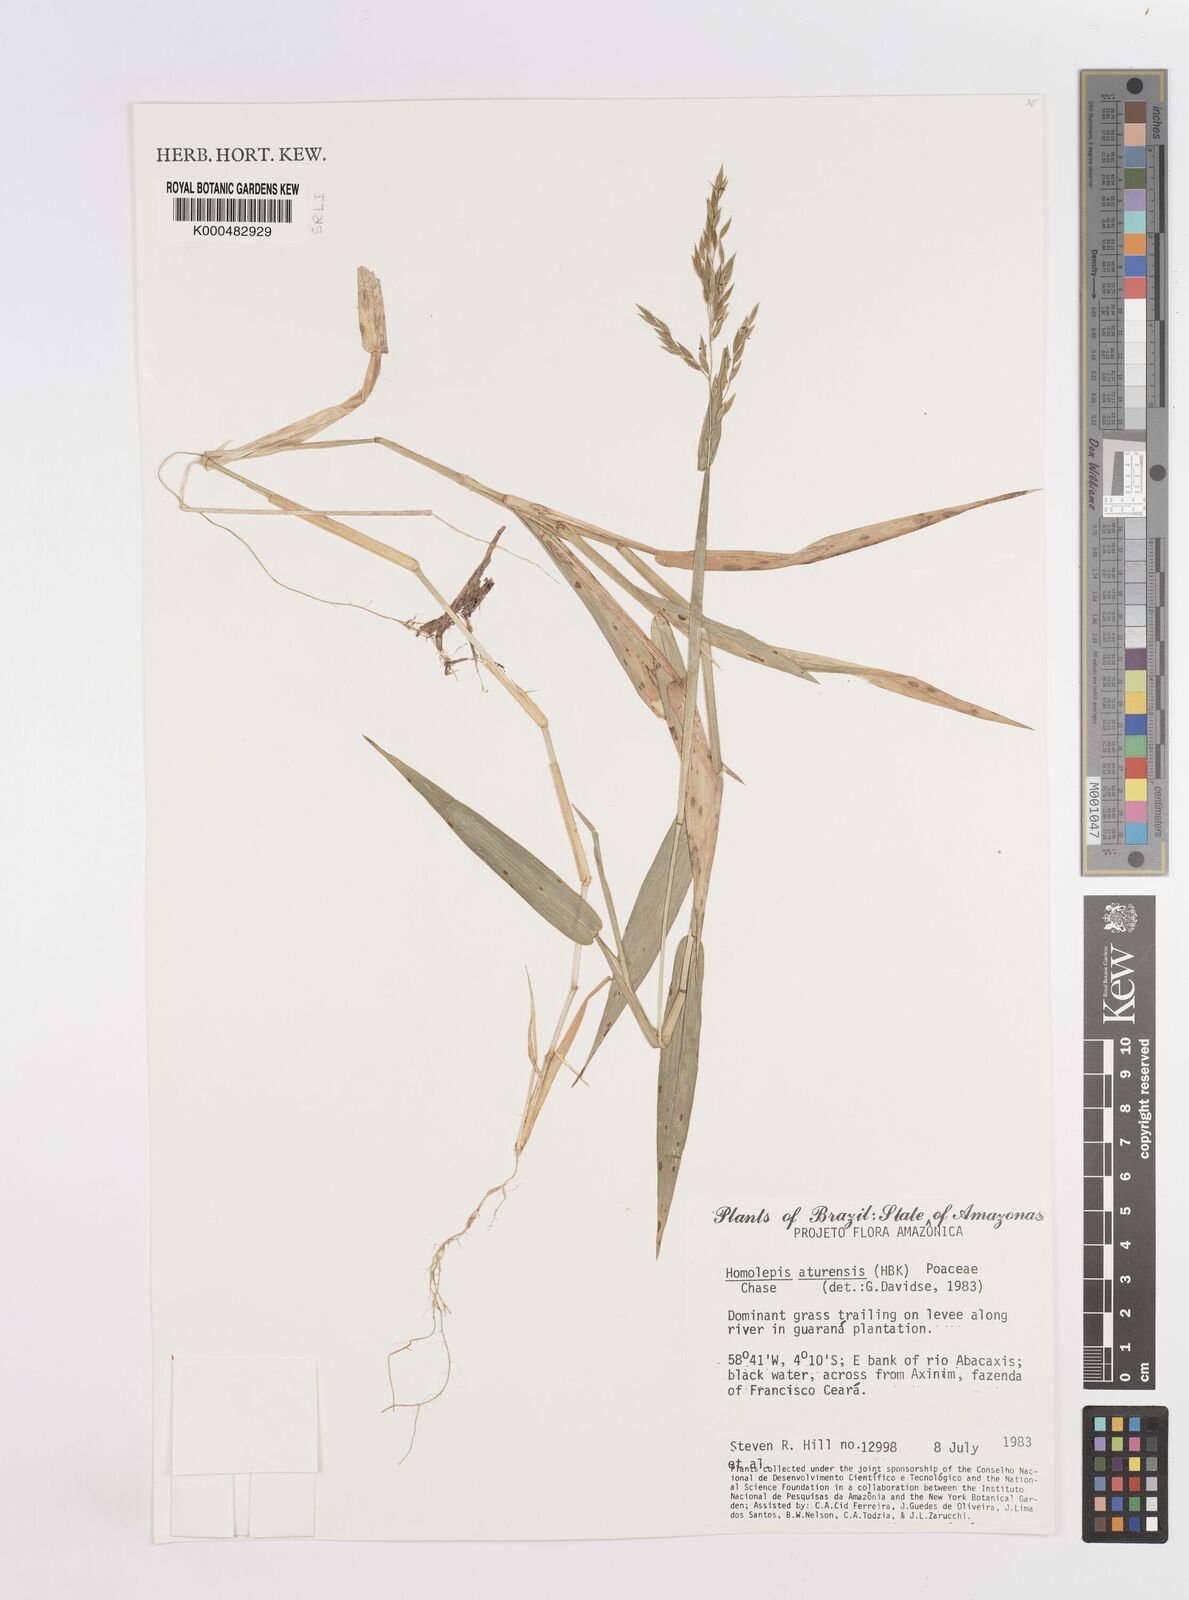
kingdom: Plantae
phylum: Tracheophyta
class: Liliopsida
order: Poales
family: Poaceae
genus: Homolepis
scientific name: Homolepis aturensis
